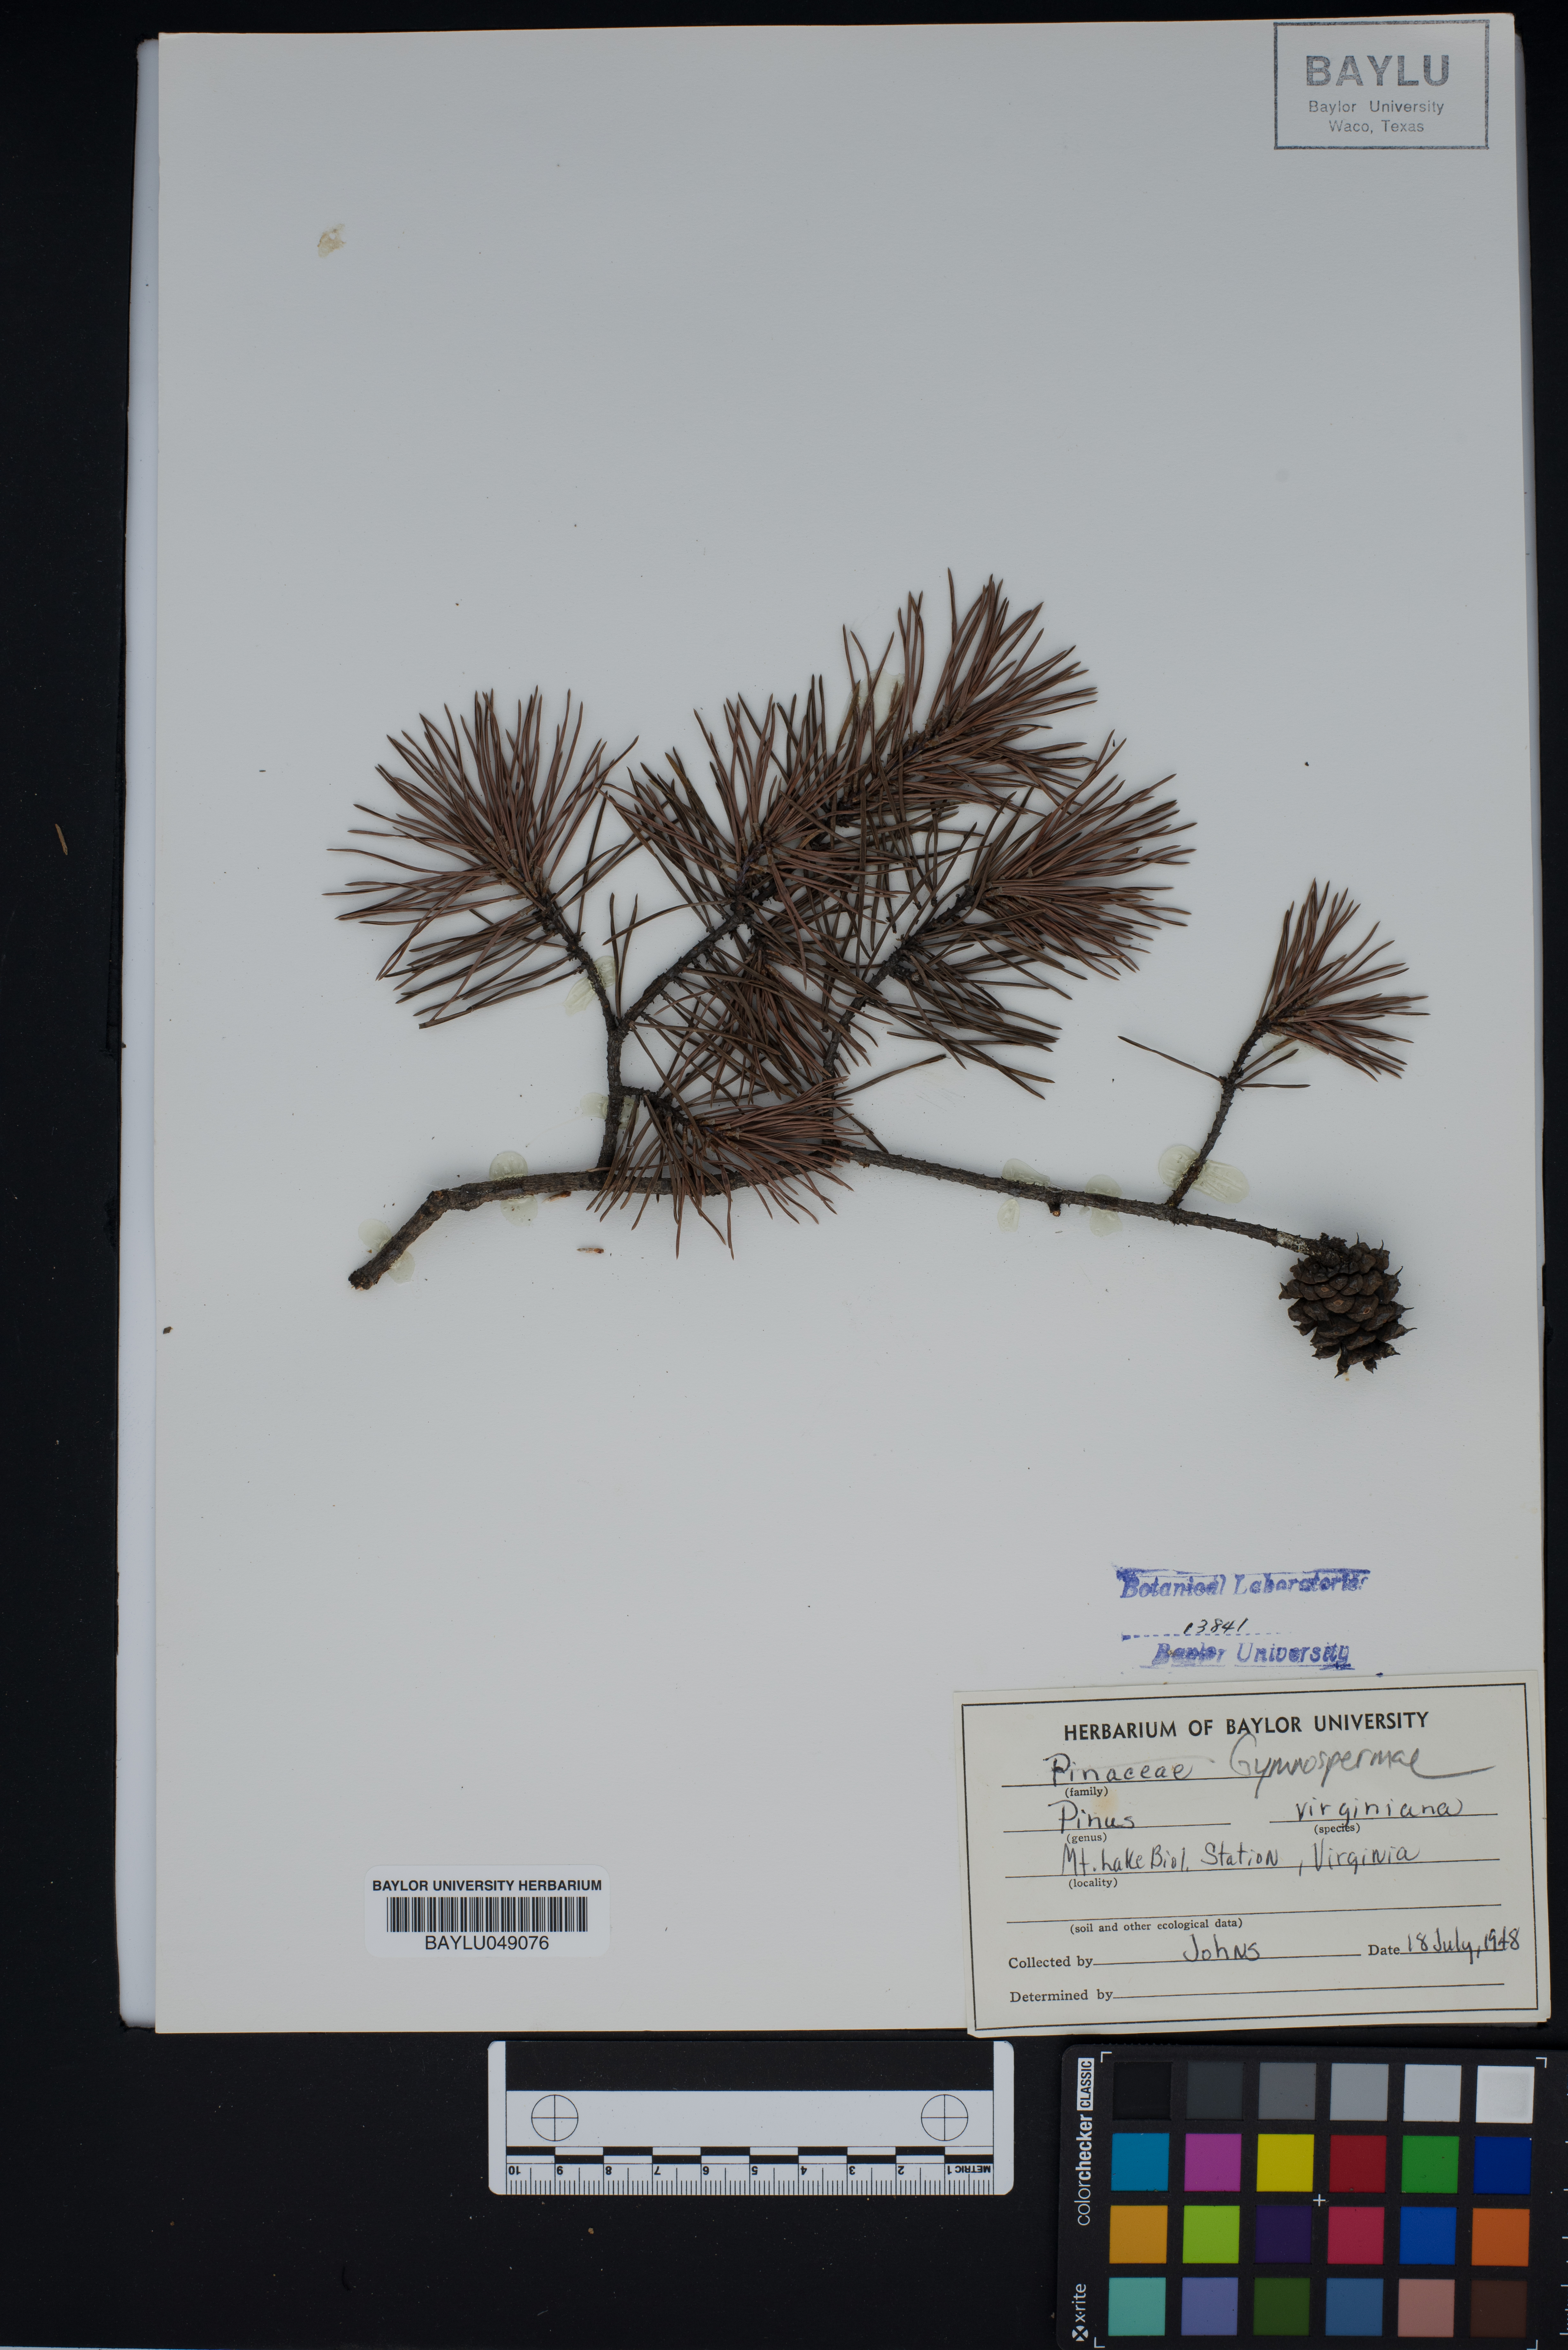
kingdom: Plantae
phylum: Tracheophyta
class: Pinopsida
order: Pinales
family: Pinaceae
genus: Pinus
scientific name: Pinus virginiana
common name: Scrub pine
